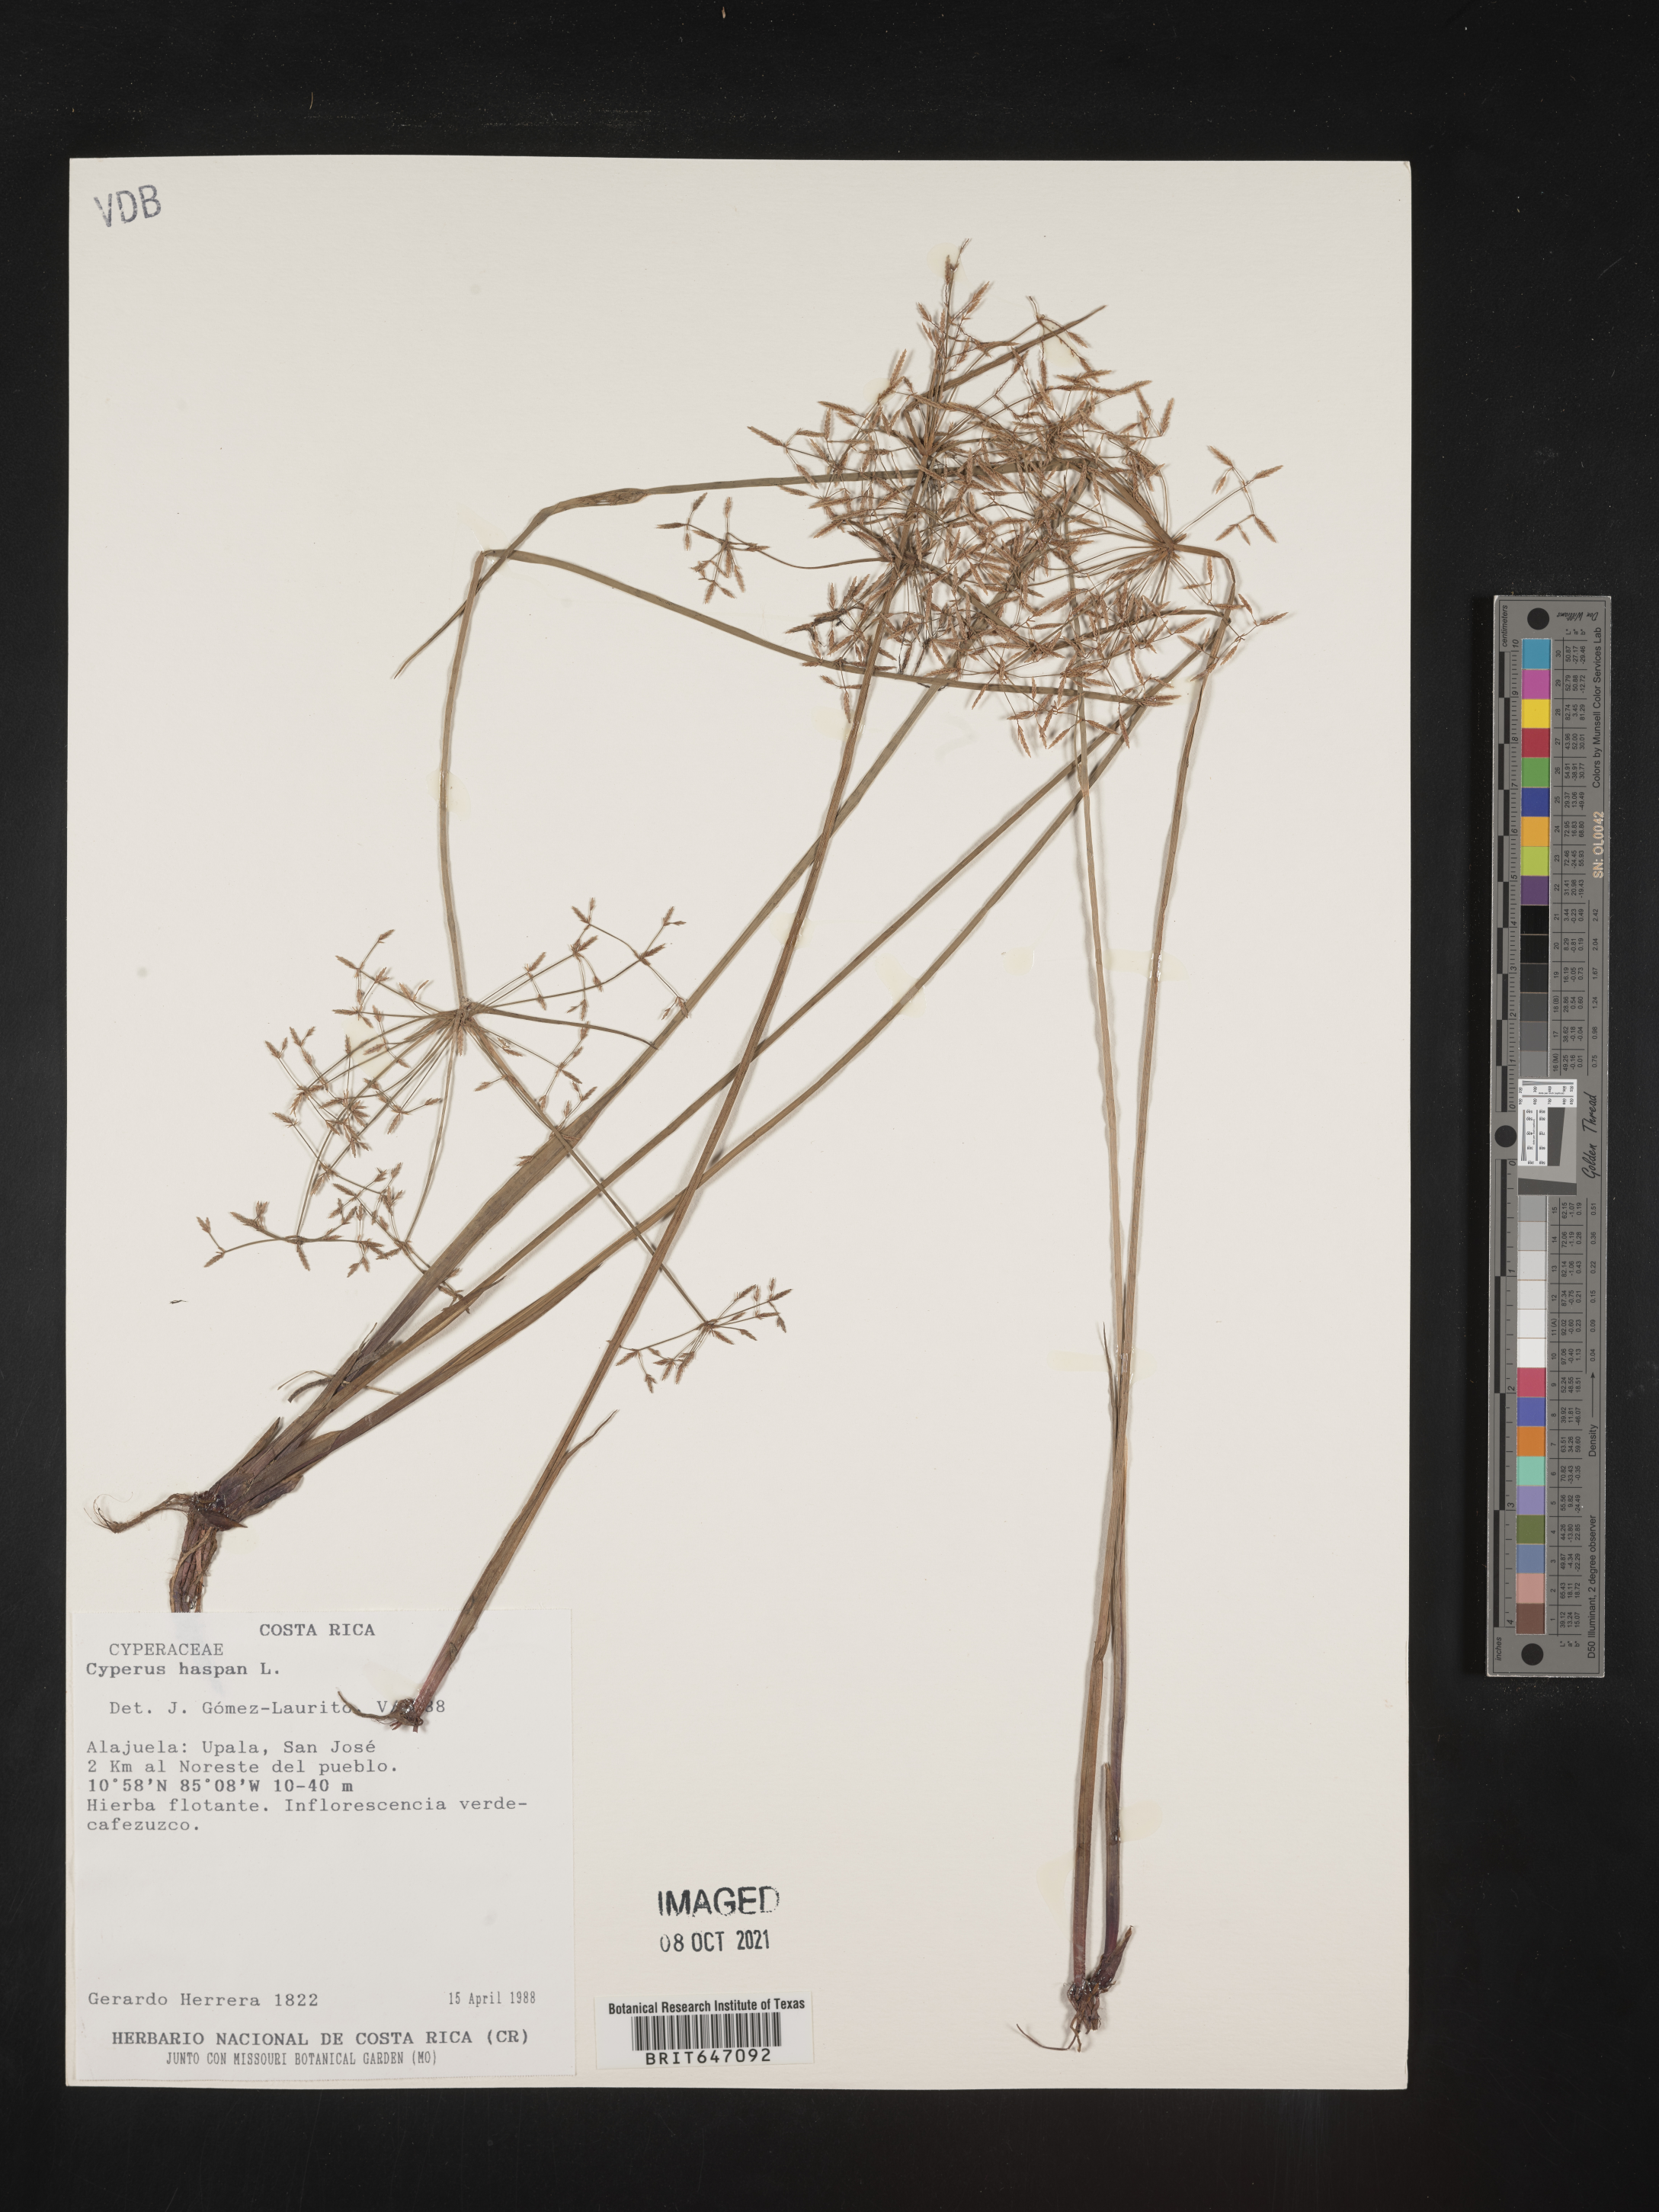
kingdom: Plantae
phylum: Tracheophyta
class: Liliopsida
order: Poales
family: Cyperaceae
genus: Cyperus
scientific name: Cyperus haspan
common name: Haspan flatsedge
